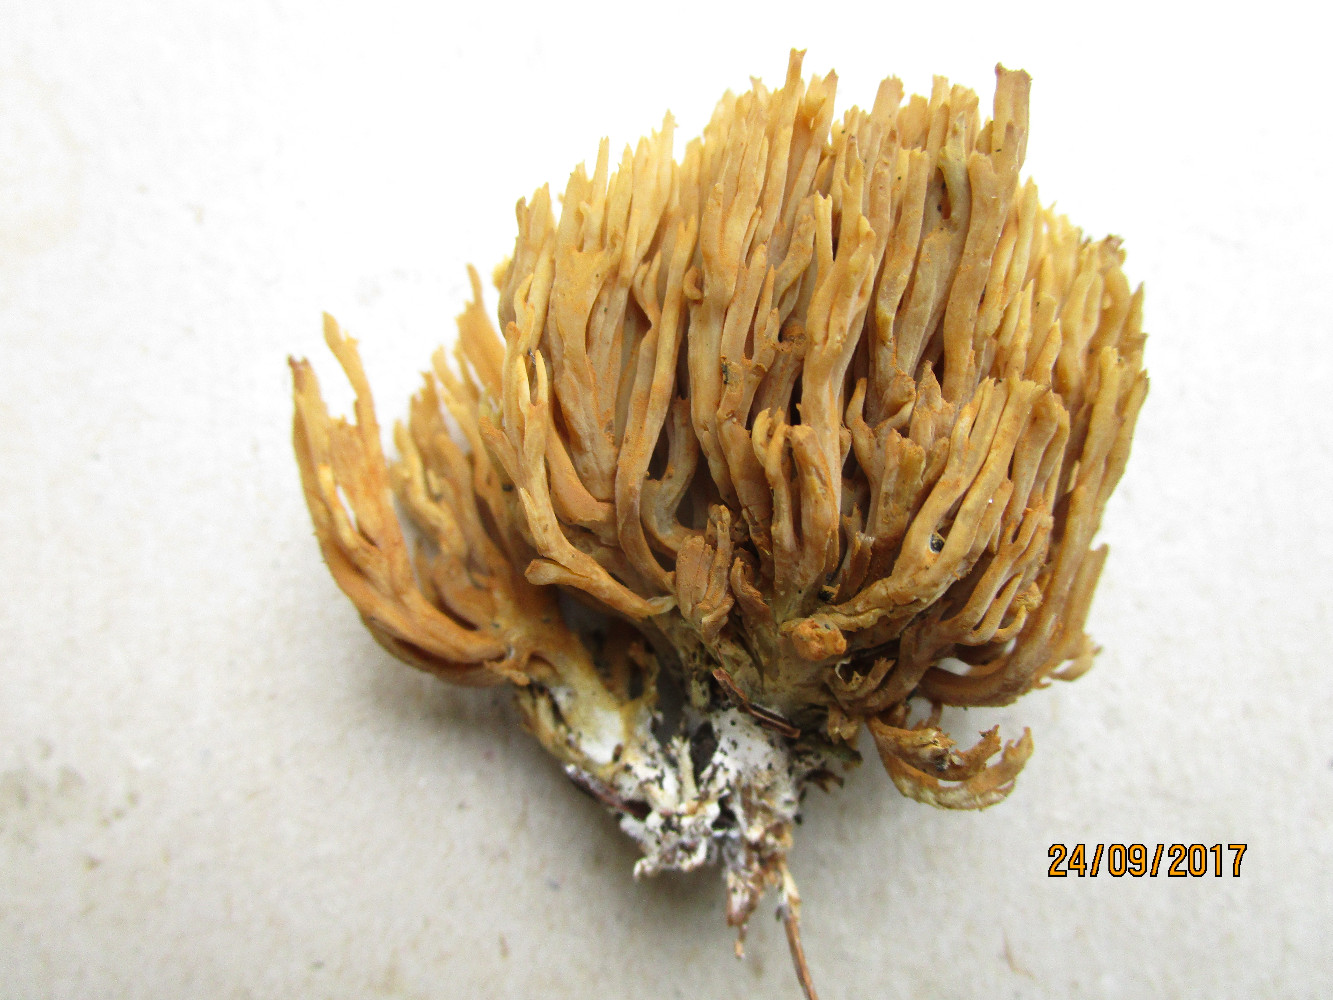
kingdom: Fungi
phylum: Basidiomycota
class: Agaricomycetes
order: Gomphales
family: Gomphaceae
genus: Phaeoclavulina
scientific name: Phaeoclavulina eumorpha
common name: gran-koralsvamp
